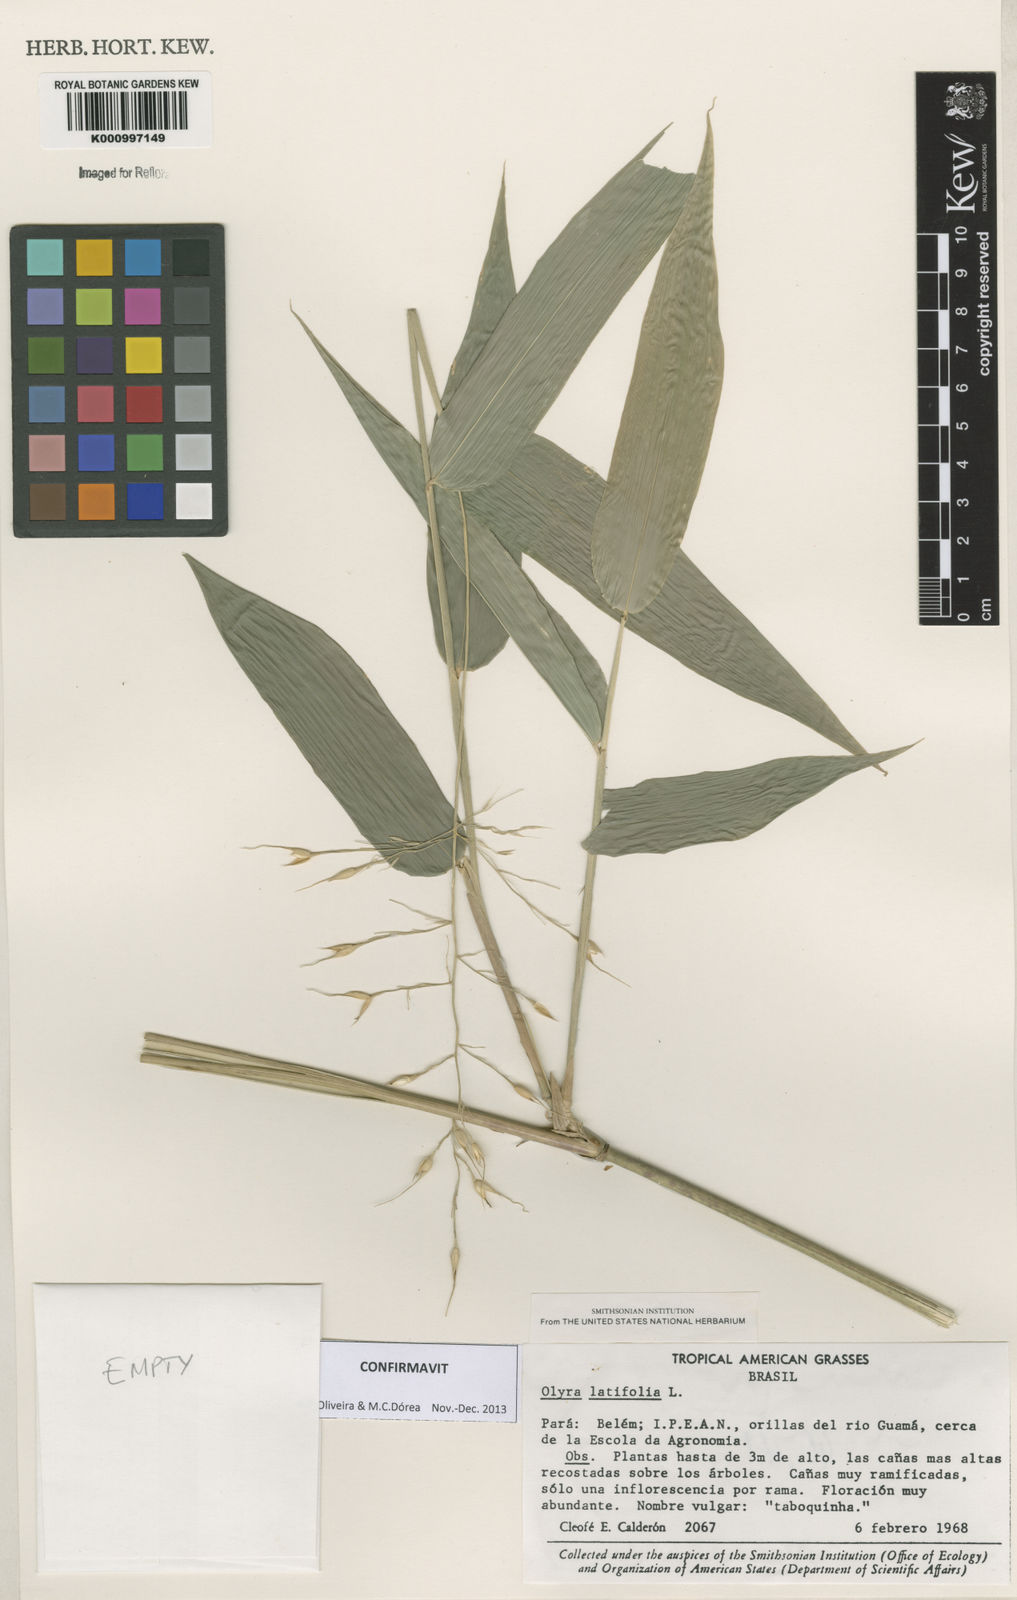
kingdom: Plantae
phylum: Tracheophyta
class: Liliopsida
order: Poales
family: Poaceae
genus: Olyra
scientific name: Olyra latifolia
